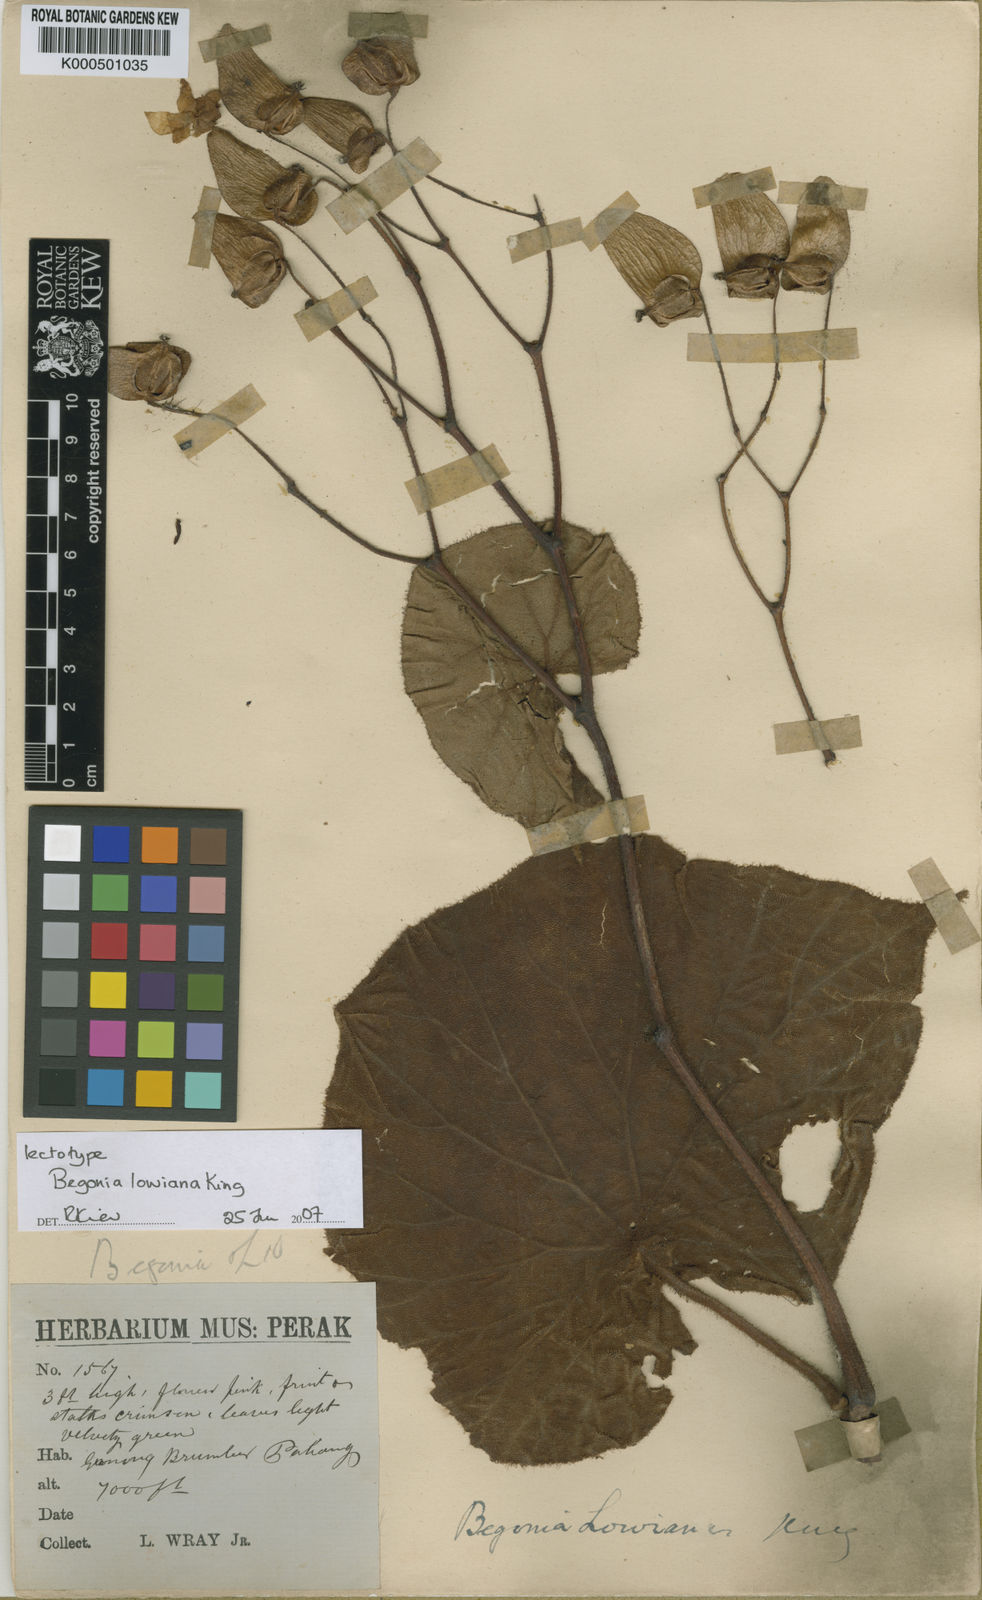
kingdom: Plantae
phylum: Tracheophyta
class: Magnoliopsida
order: Cucurbitales
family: Begoniaceae
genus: Begonia
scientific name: Begonia lowiana
